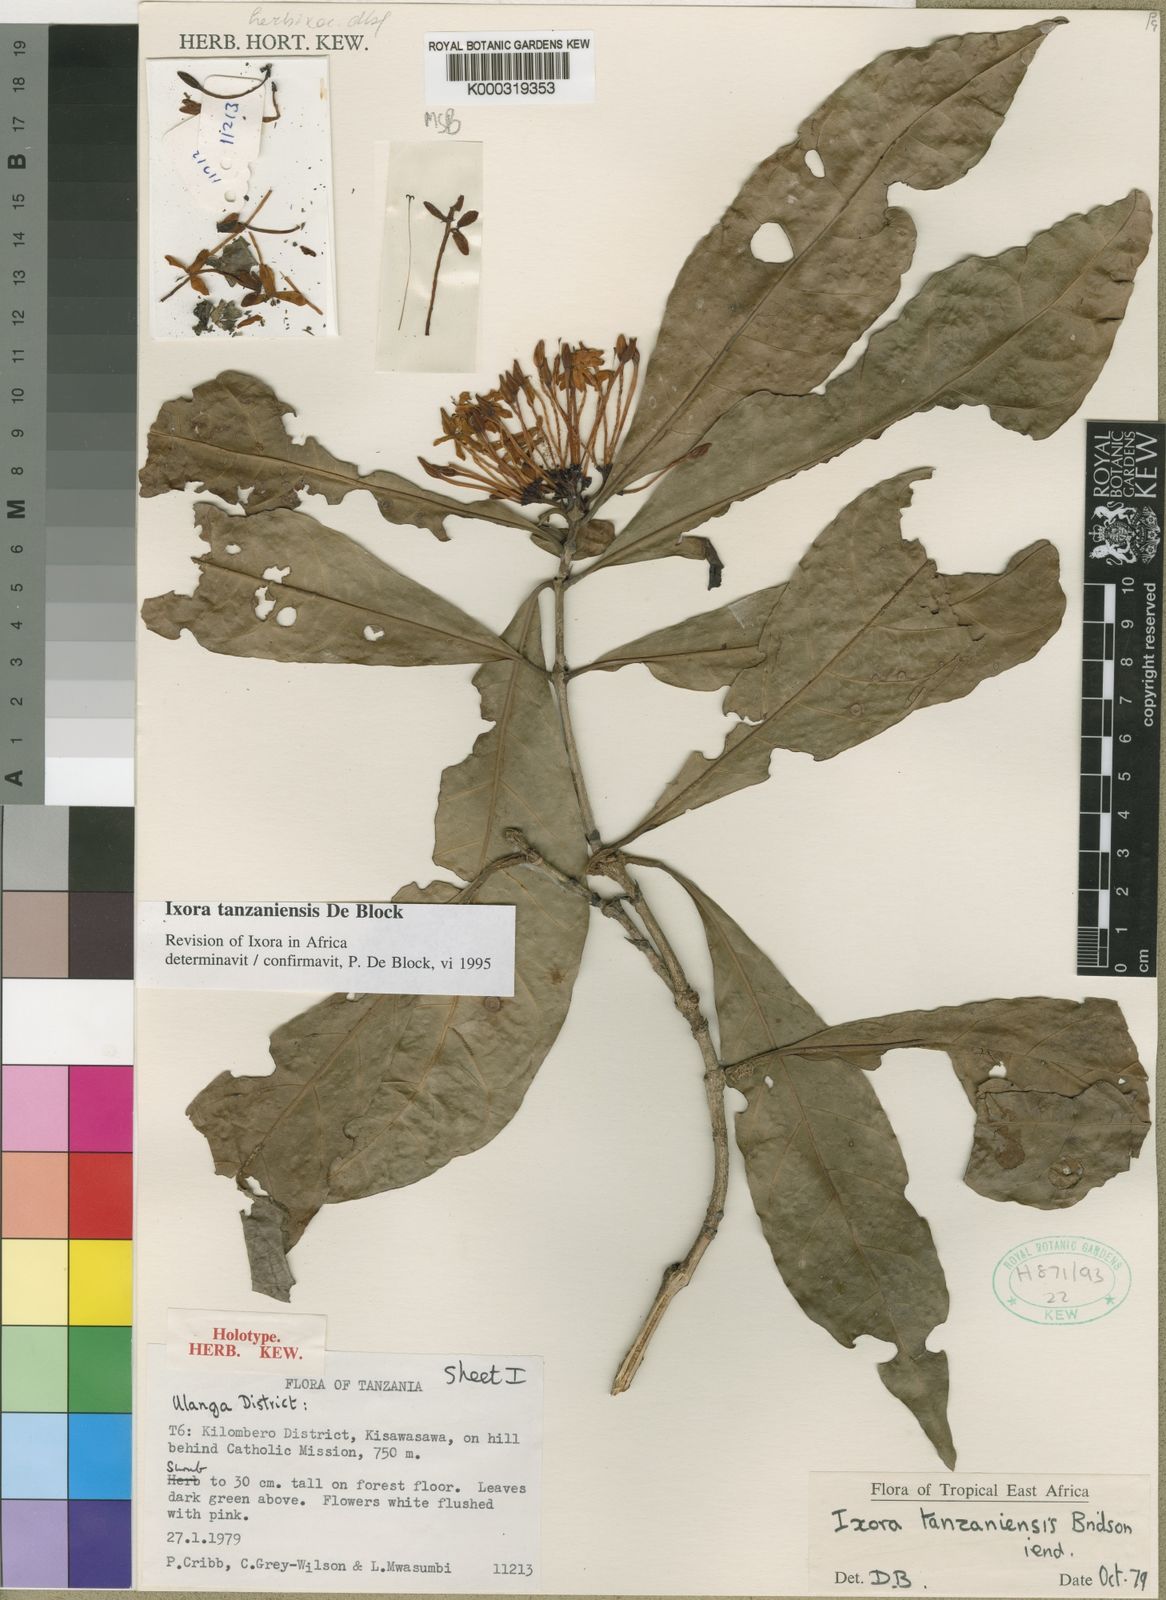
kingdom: Plantae
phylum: Tracheophyta
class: Magnoliopsida
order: Gentianales
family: Rubiaceae
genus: Ixora
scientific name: Ixora tanzaniensis
